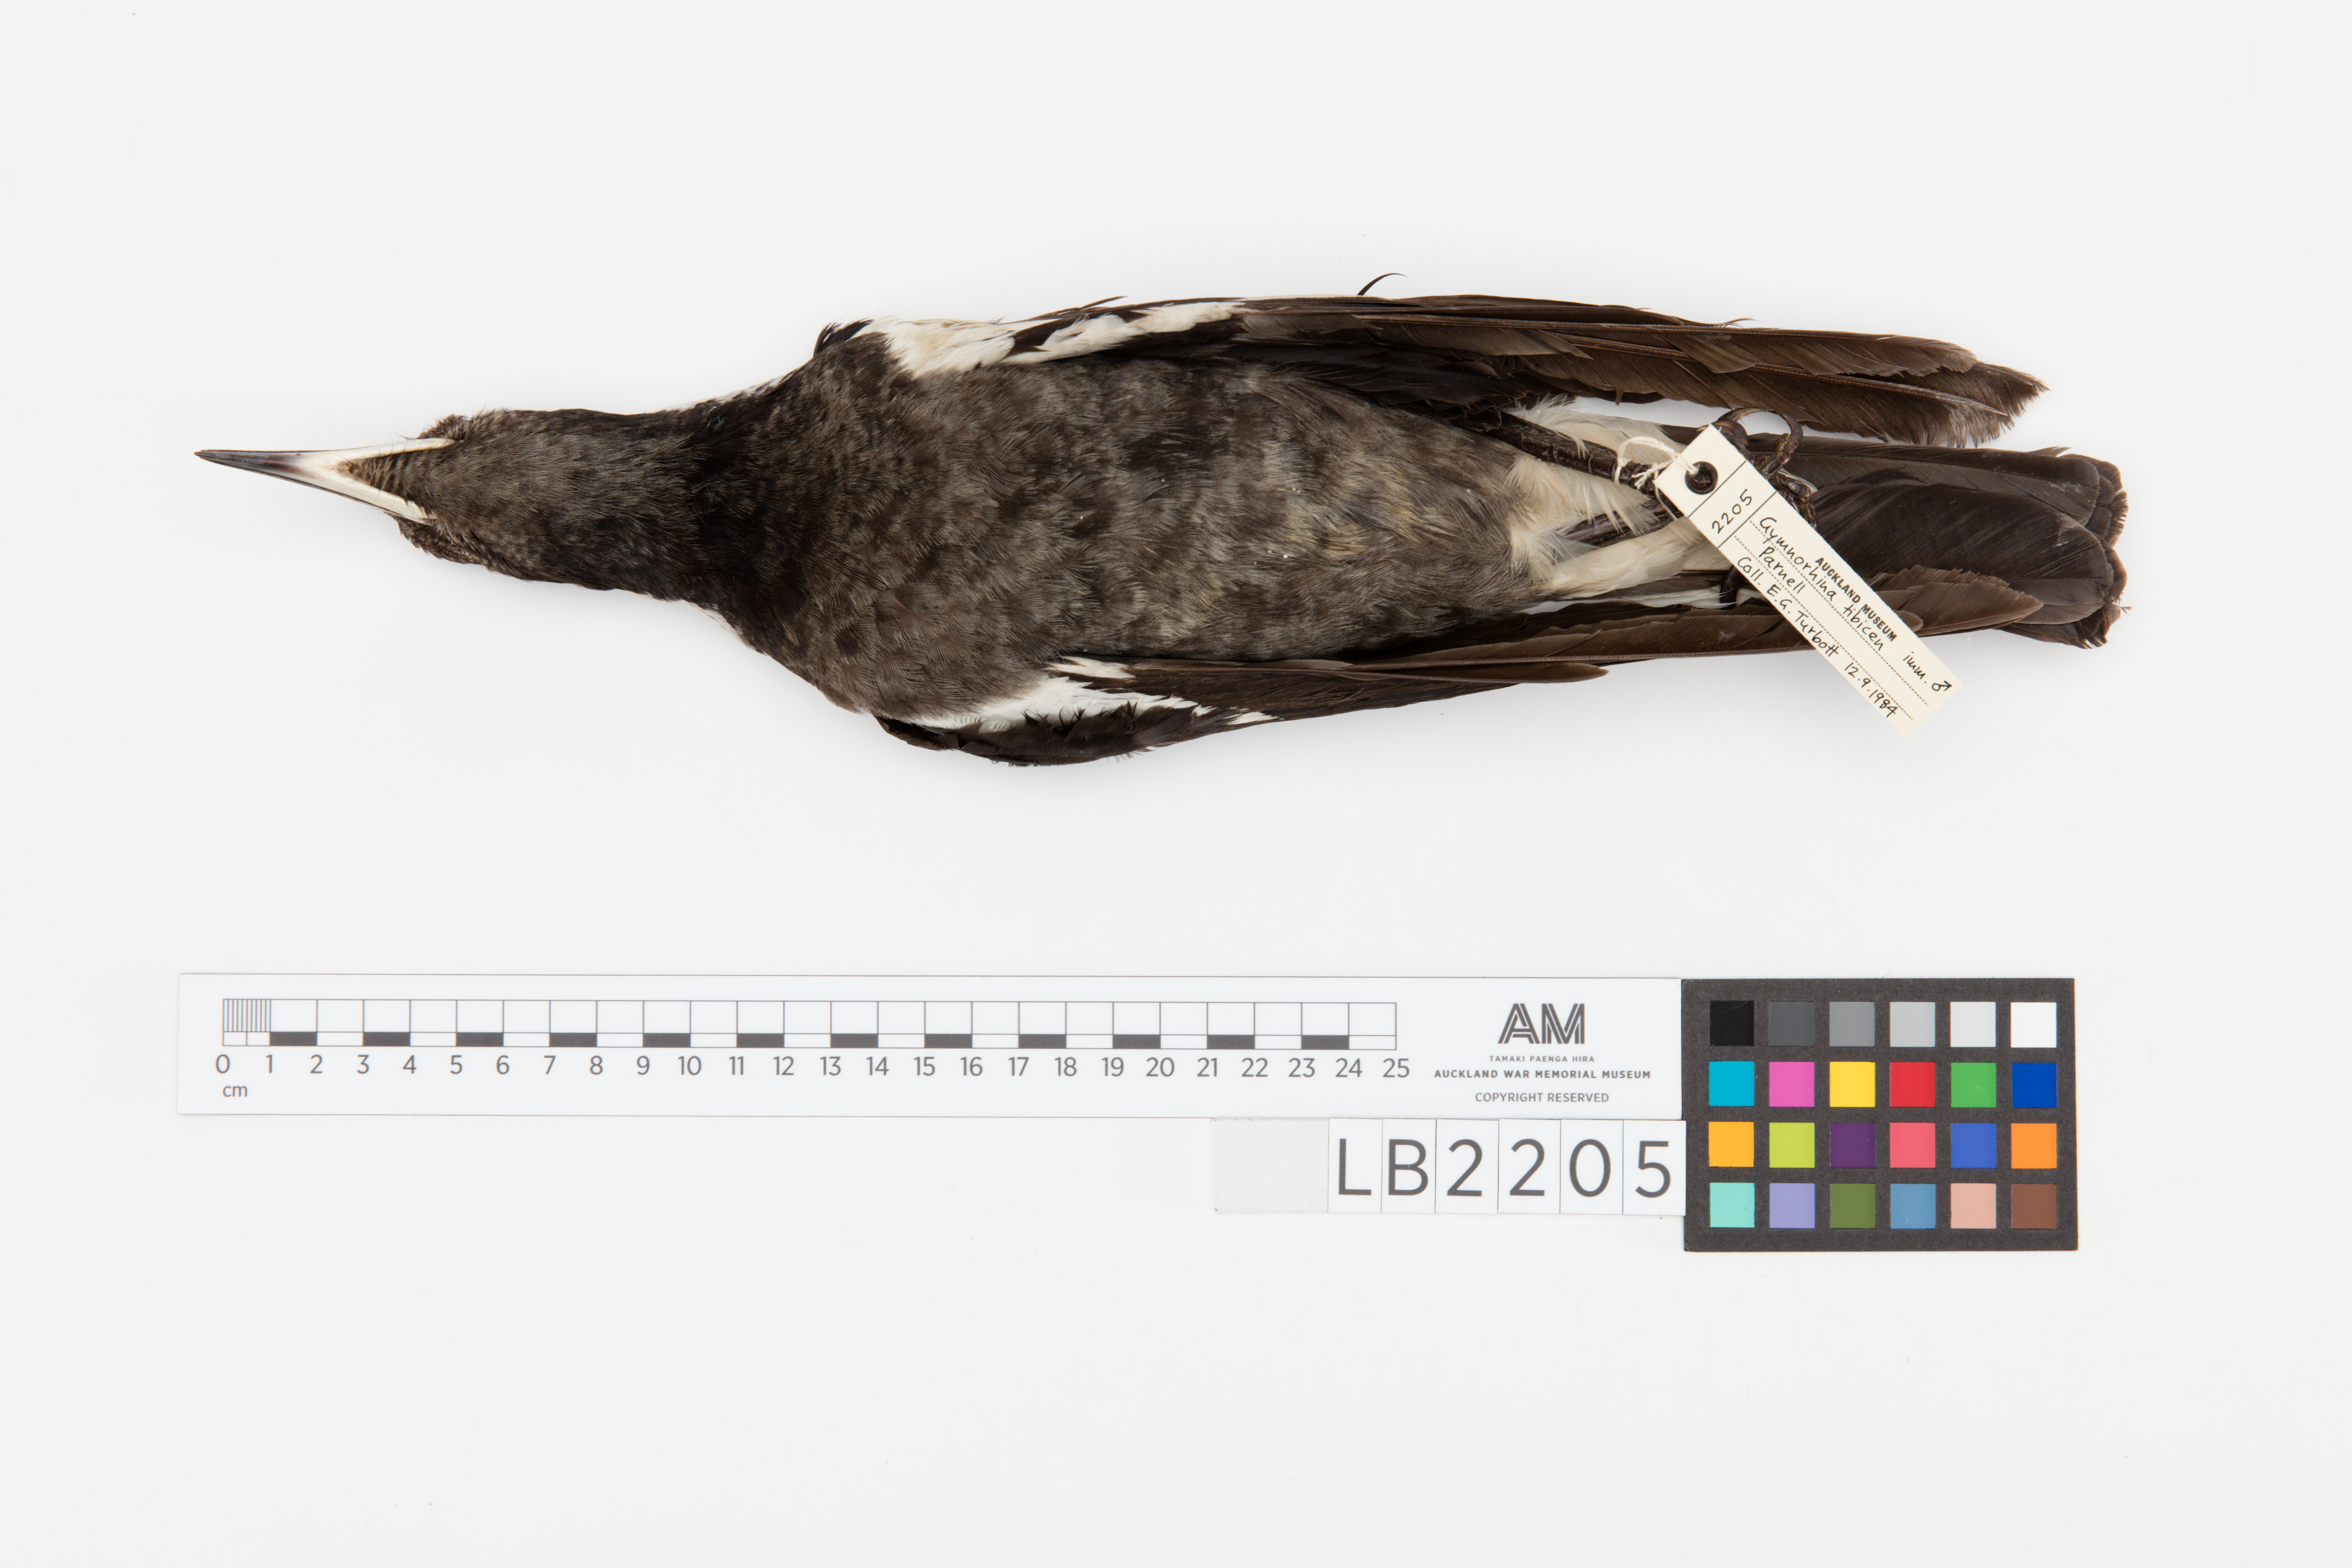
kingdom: Animalia
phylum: Chordata
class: Aves
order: Passeriformes
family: Cracticidae
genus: Gymnorhina
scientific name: Gymnorhina tibicen
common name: Australian magpie
